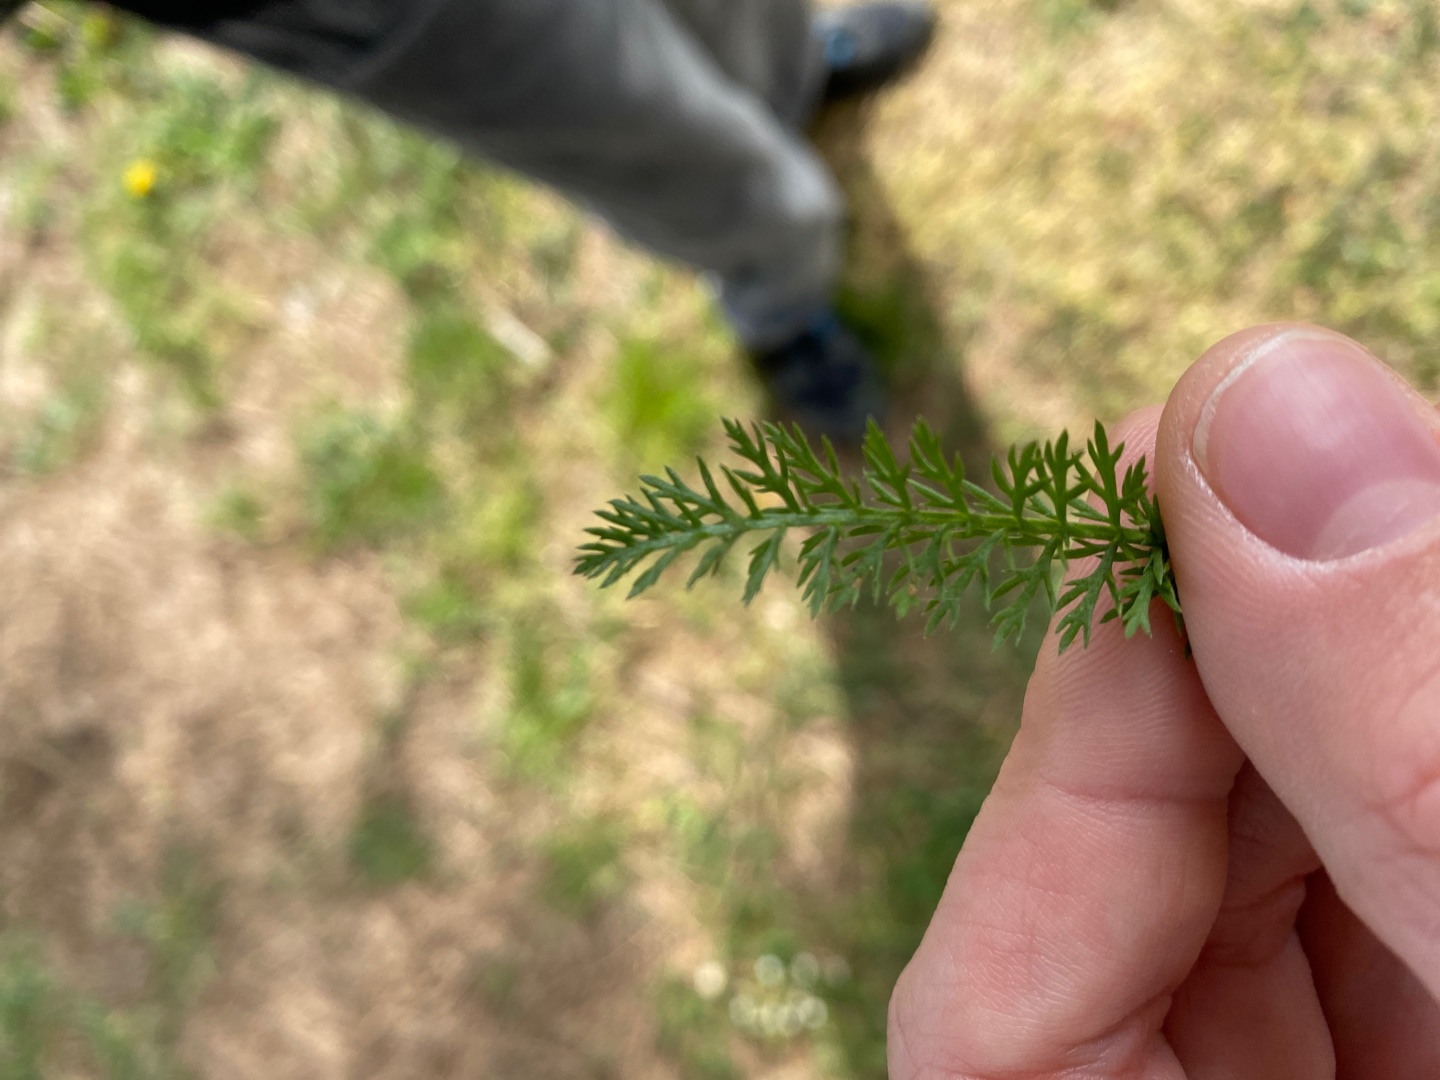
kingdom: Plantae
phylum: Tracheophyta
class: Magnoliopsida
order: Asterales
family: Asteraceae
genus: Achillea
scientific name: Achillea millefolium
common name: Almindelig røllike
